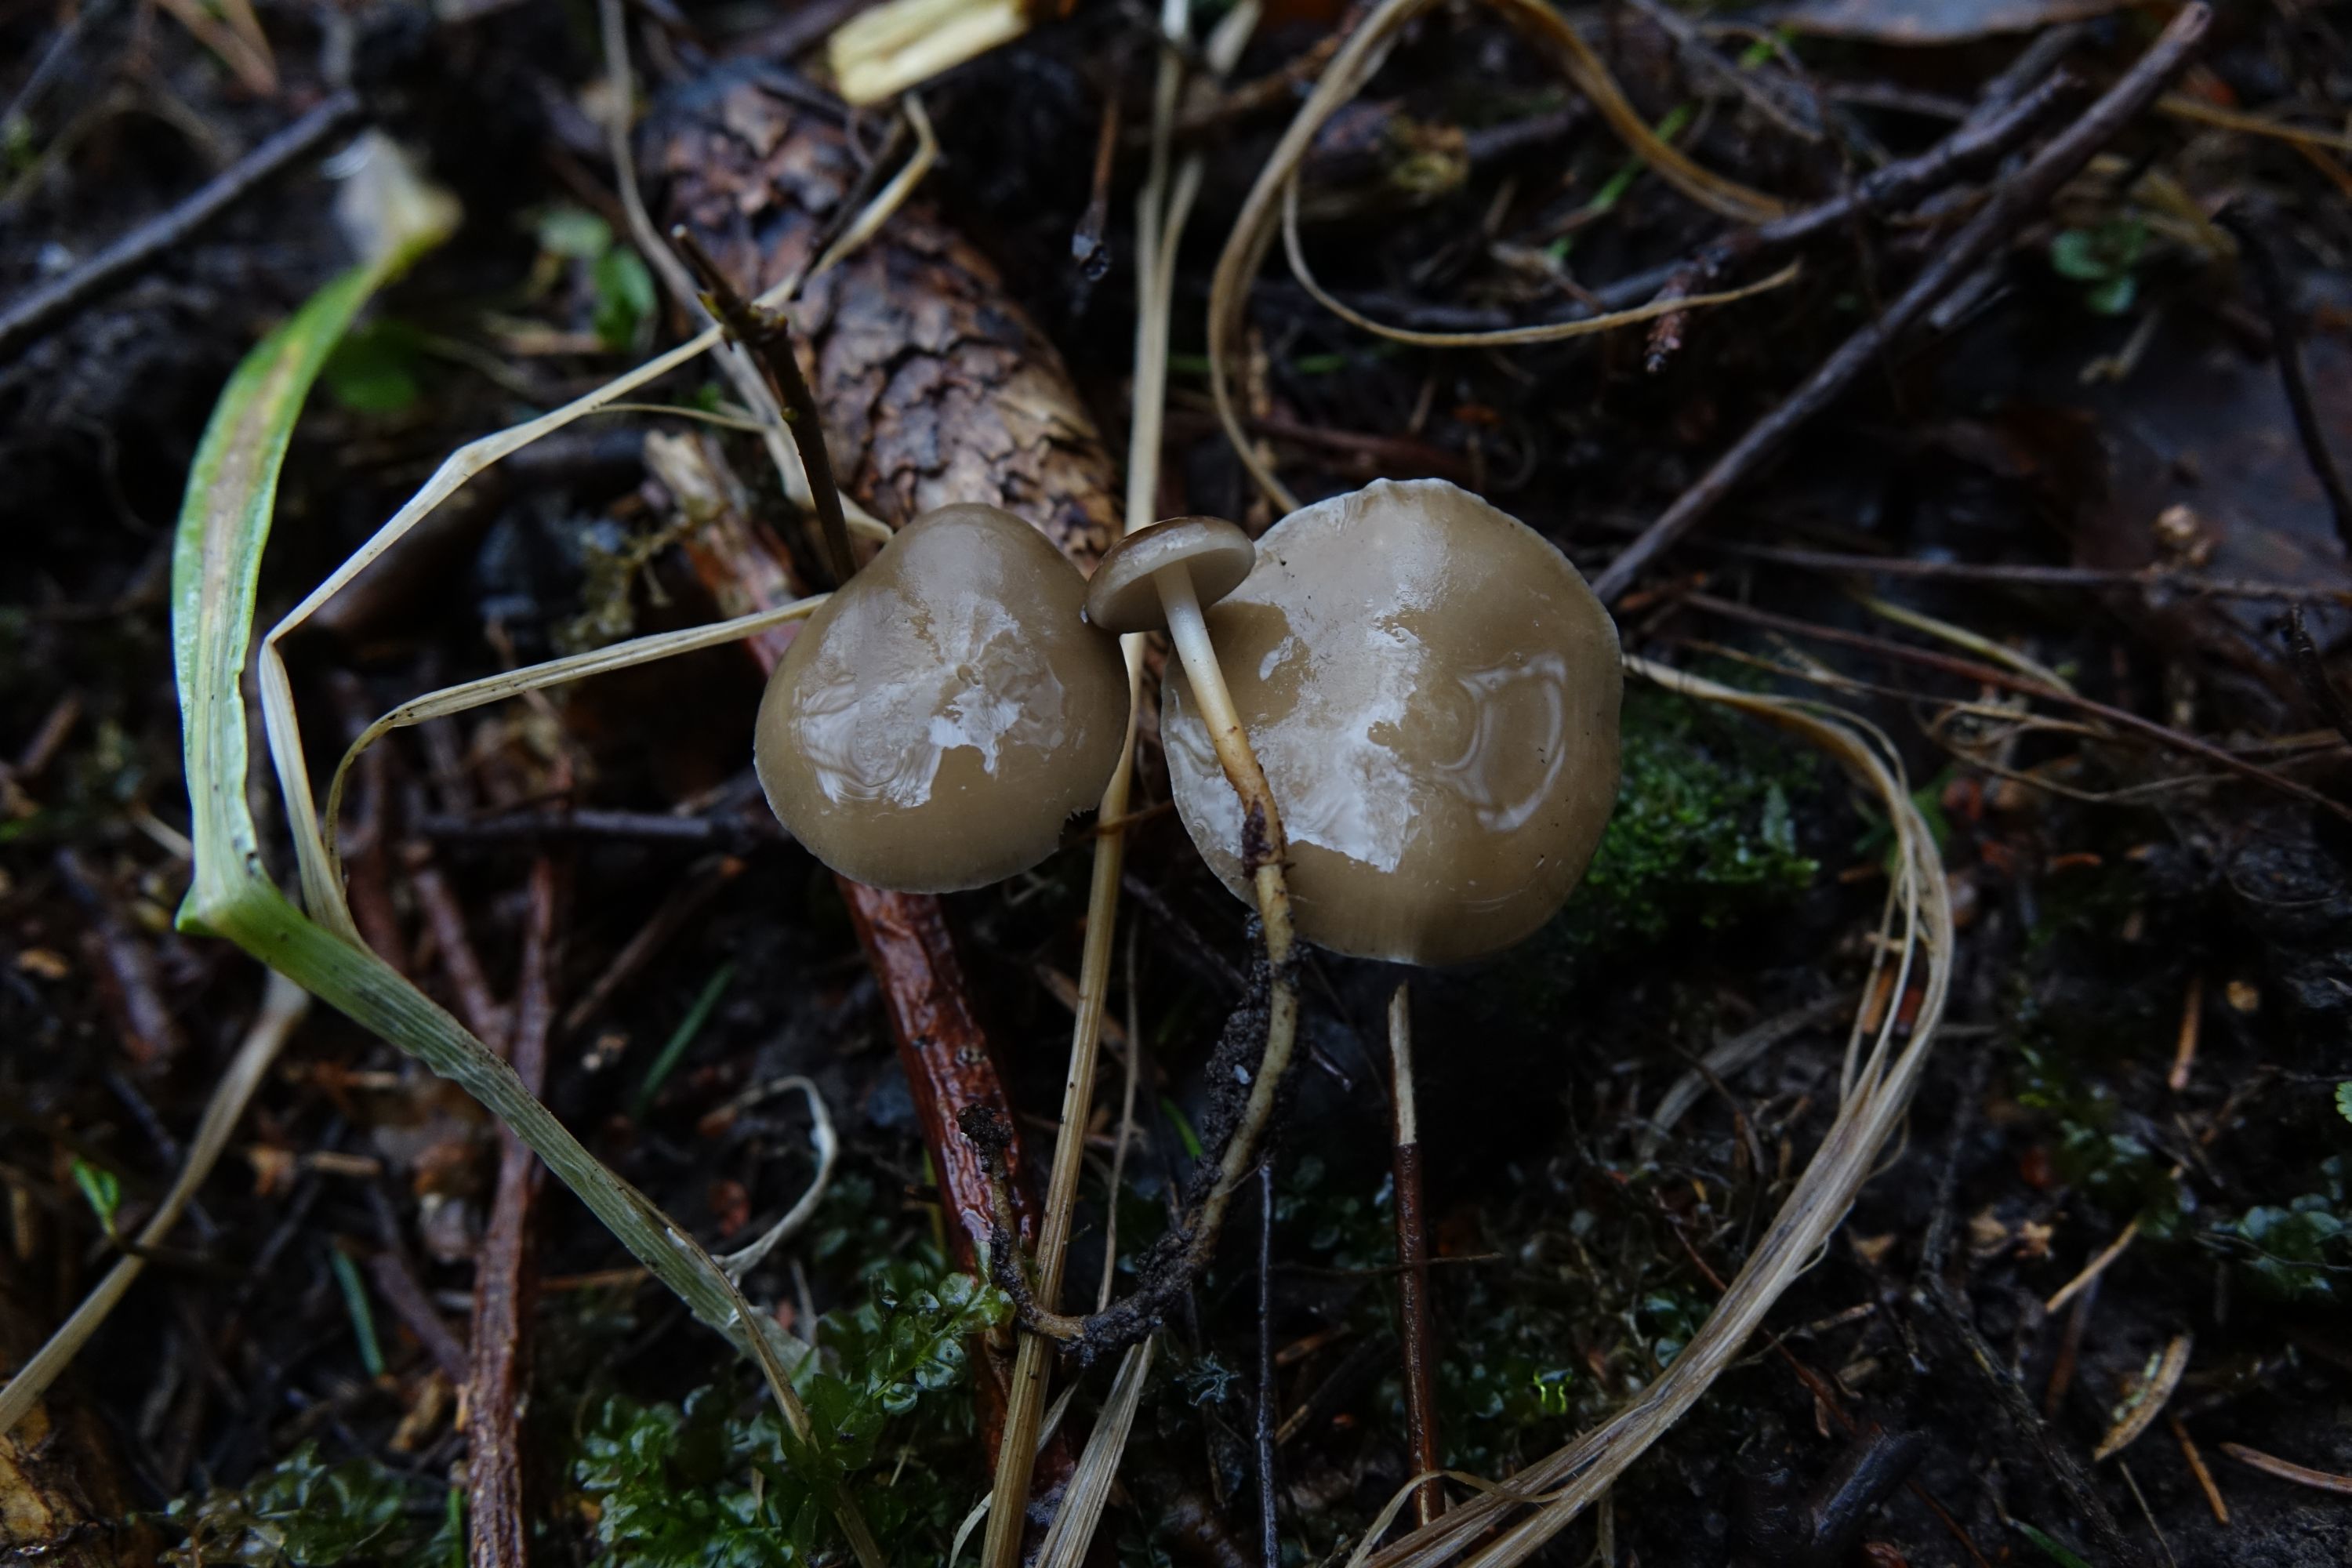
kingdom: Fungi
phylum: Basidiomycota
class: Agaricomycetes
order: Agaricales
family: Physalacriaceae
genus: Strobilurus
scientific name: Strobilurus esculentus
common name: Sprucecone cap
